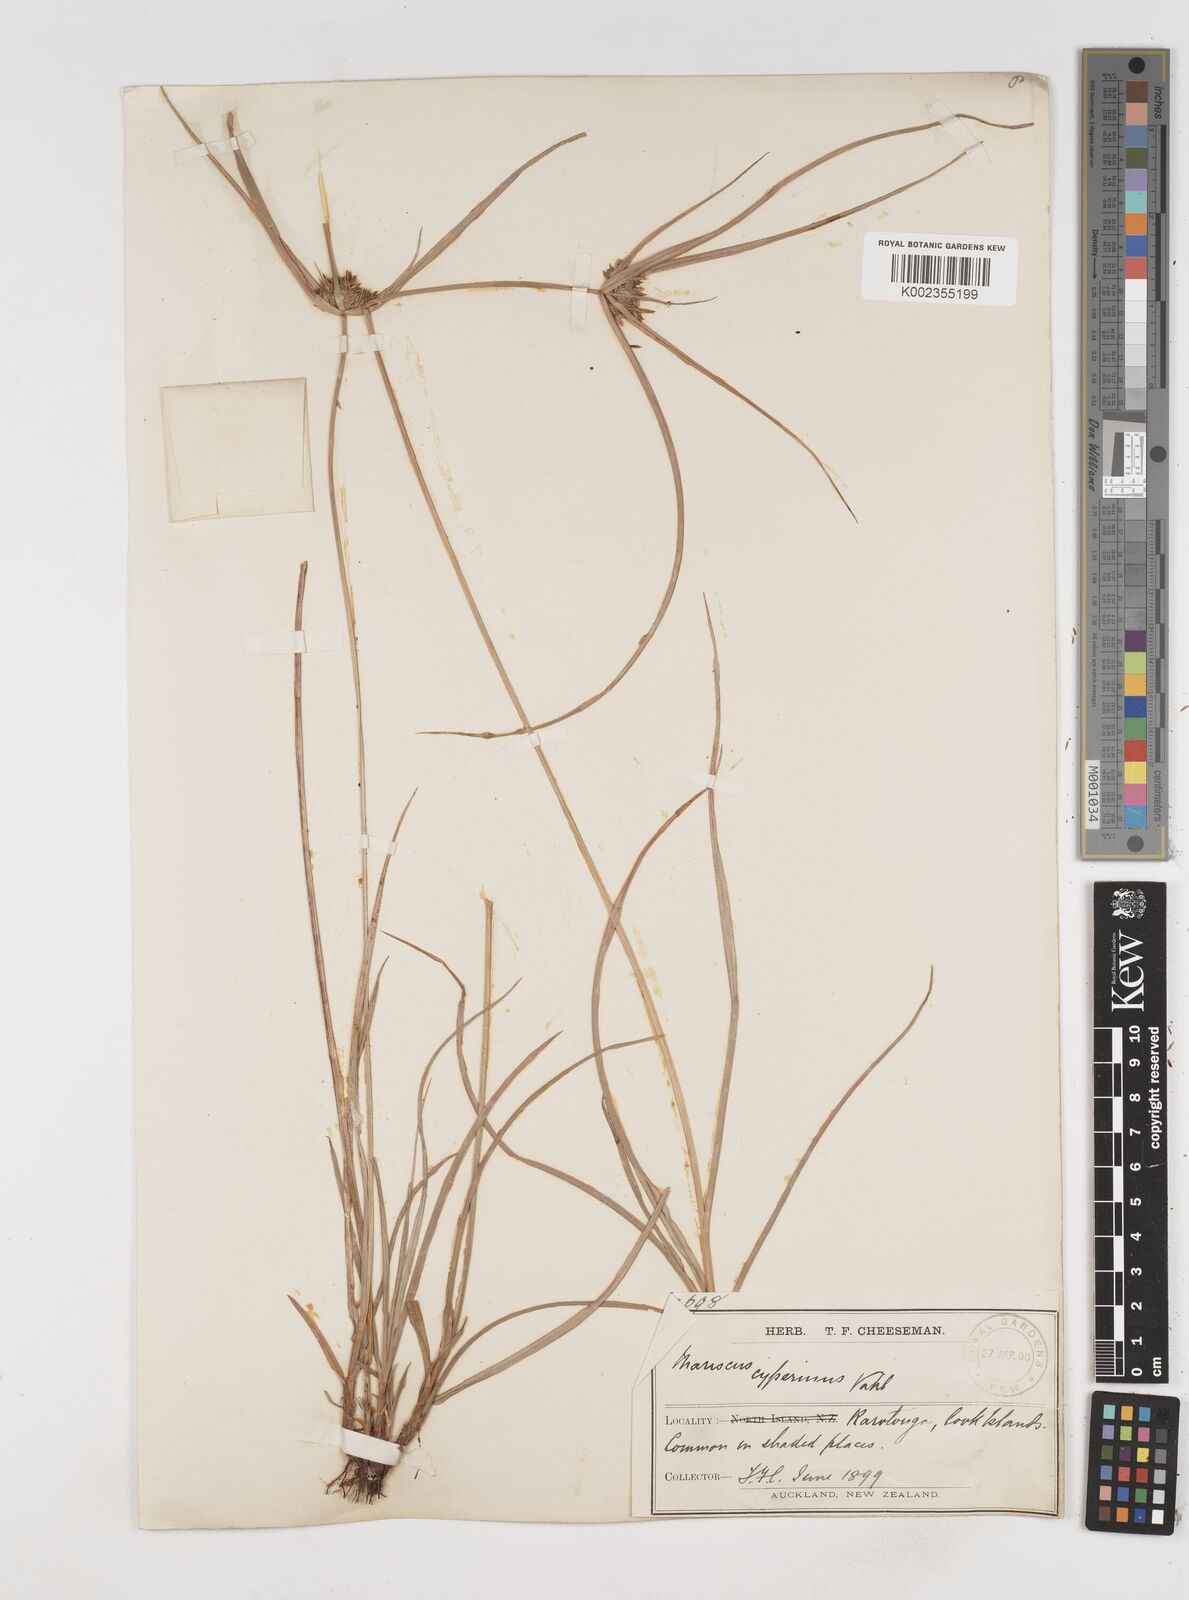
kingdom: Plantae
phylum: Tracheophyta
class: Liliopsida
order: Poales
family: Cyperaceae
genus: Cyperus
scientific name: Cyperus cyperinus
